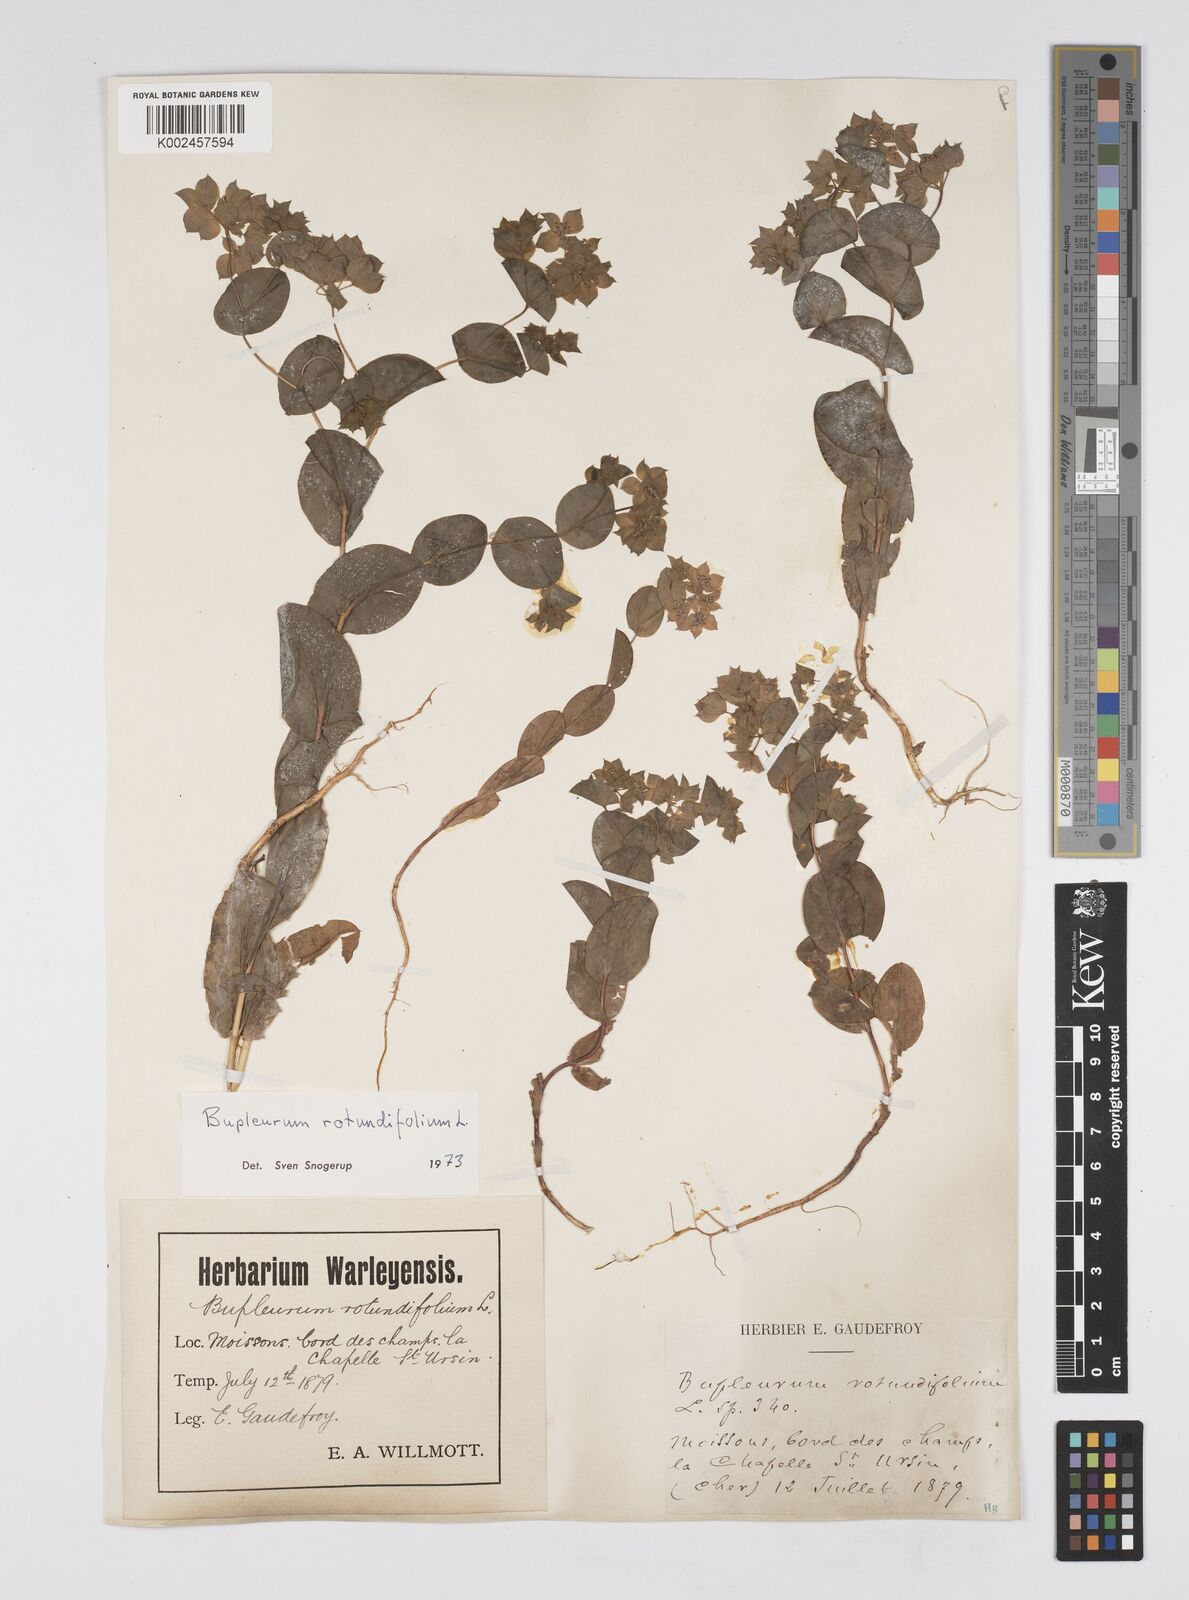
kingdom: Plantae
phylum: Tracheophyta
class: Magnoliopsida
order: Apiales
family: Apiaceae
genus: Bupleurum
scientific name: Bupleurum rotundifolium
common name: Thorow-wax
